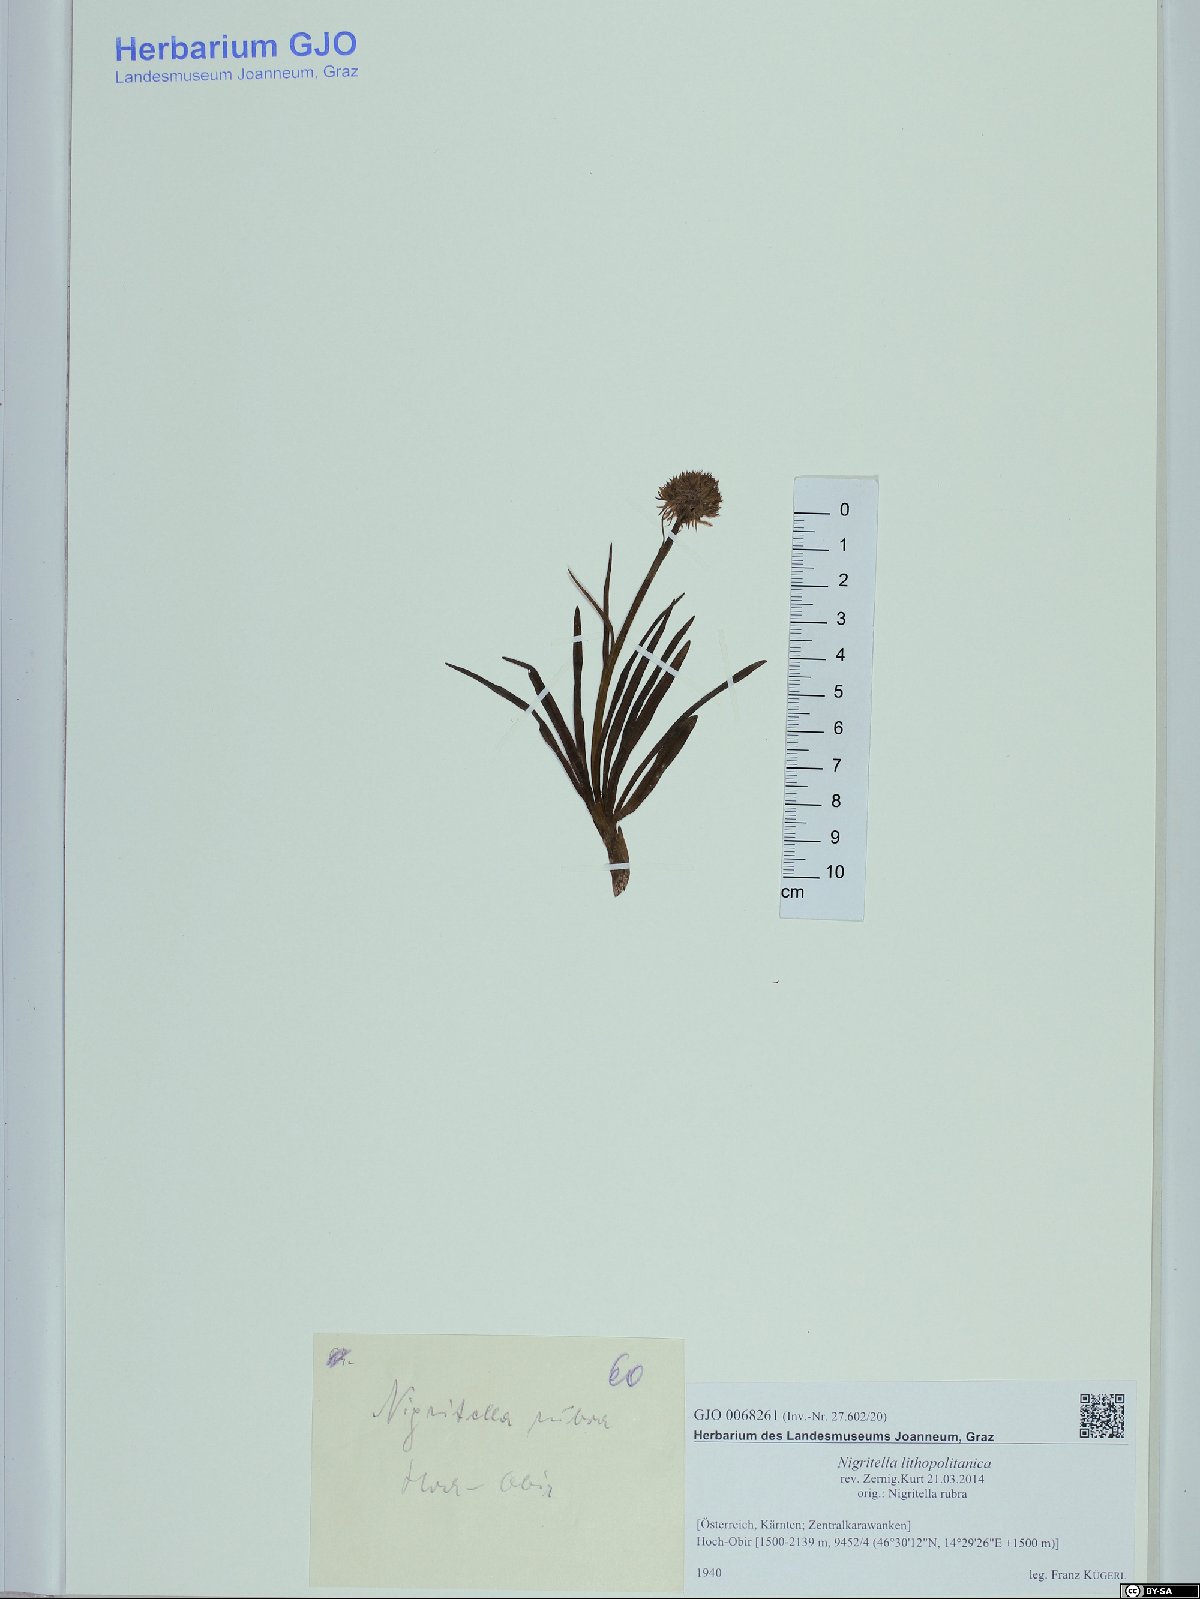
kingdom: Plantae
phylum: Tracheophyta
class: Liliopsida
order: Asparagales
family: Orchidaceae
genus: Gymnadenia
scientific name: Gymnadenia lithopolitanica
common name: Austrian gymnadenia
